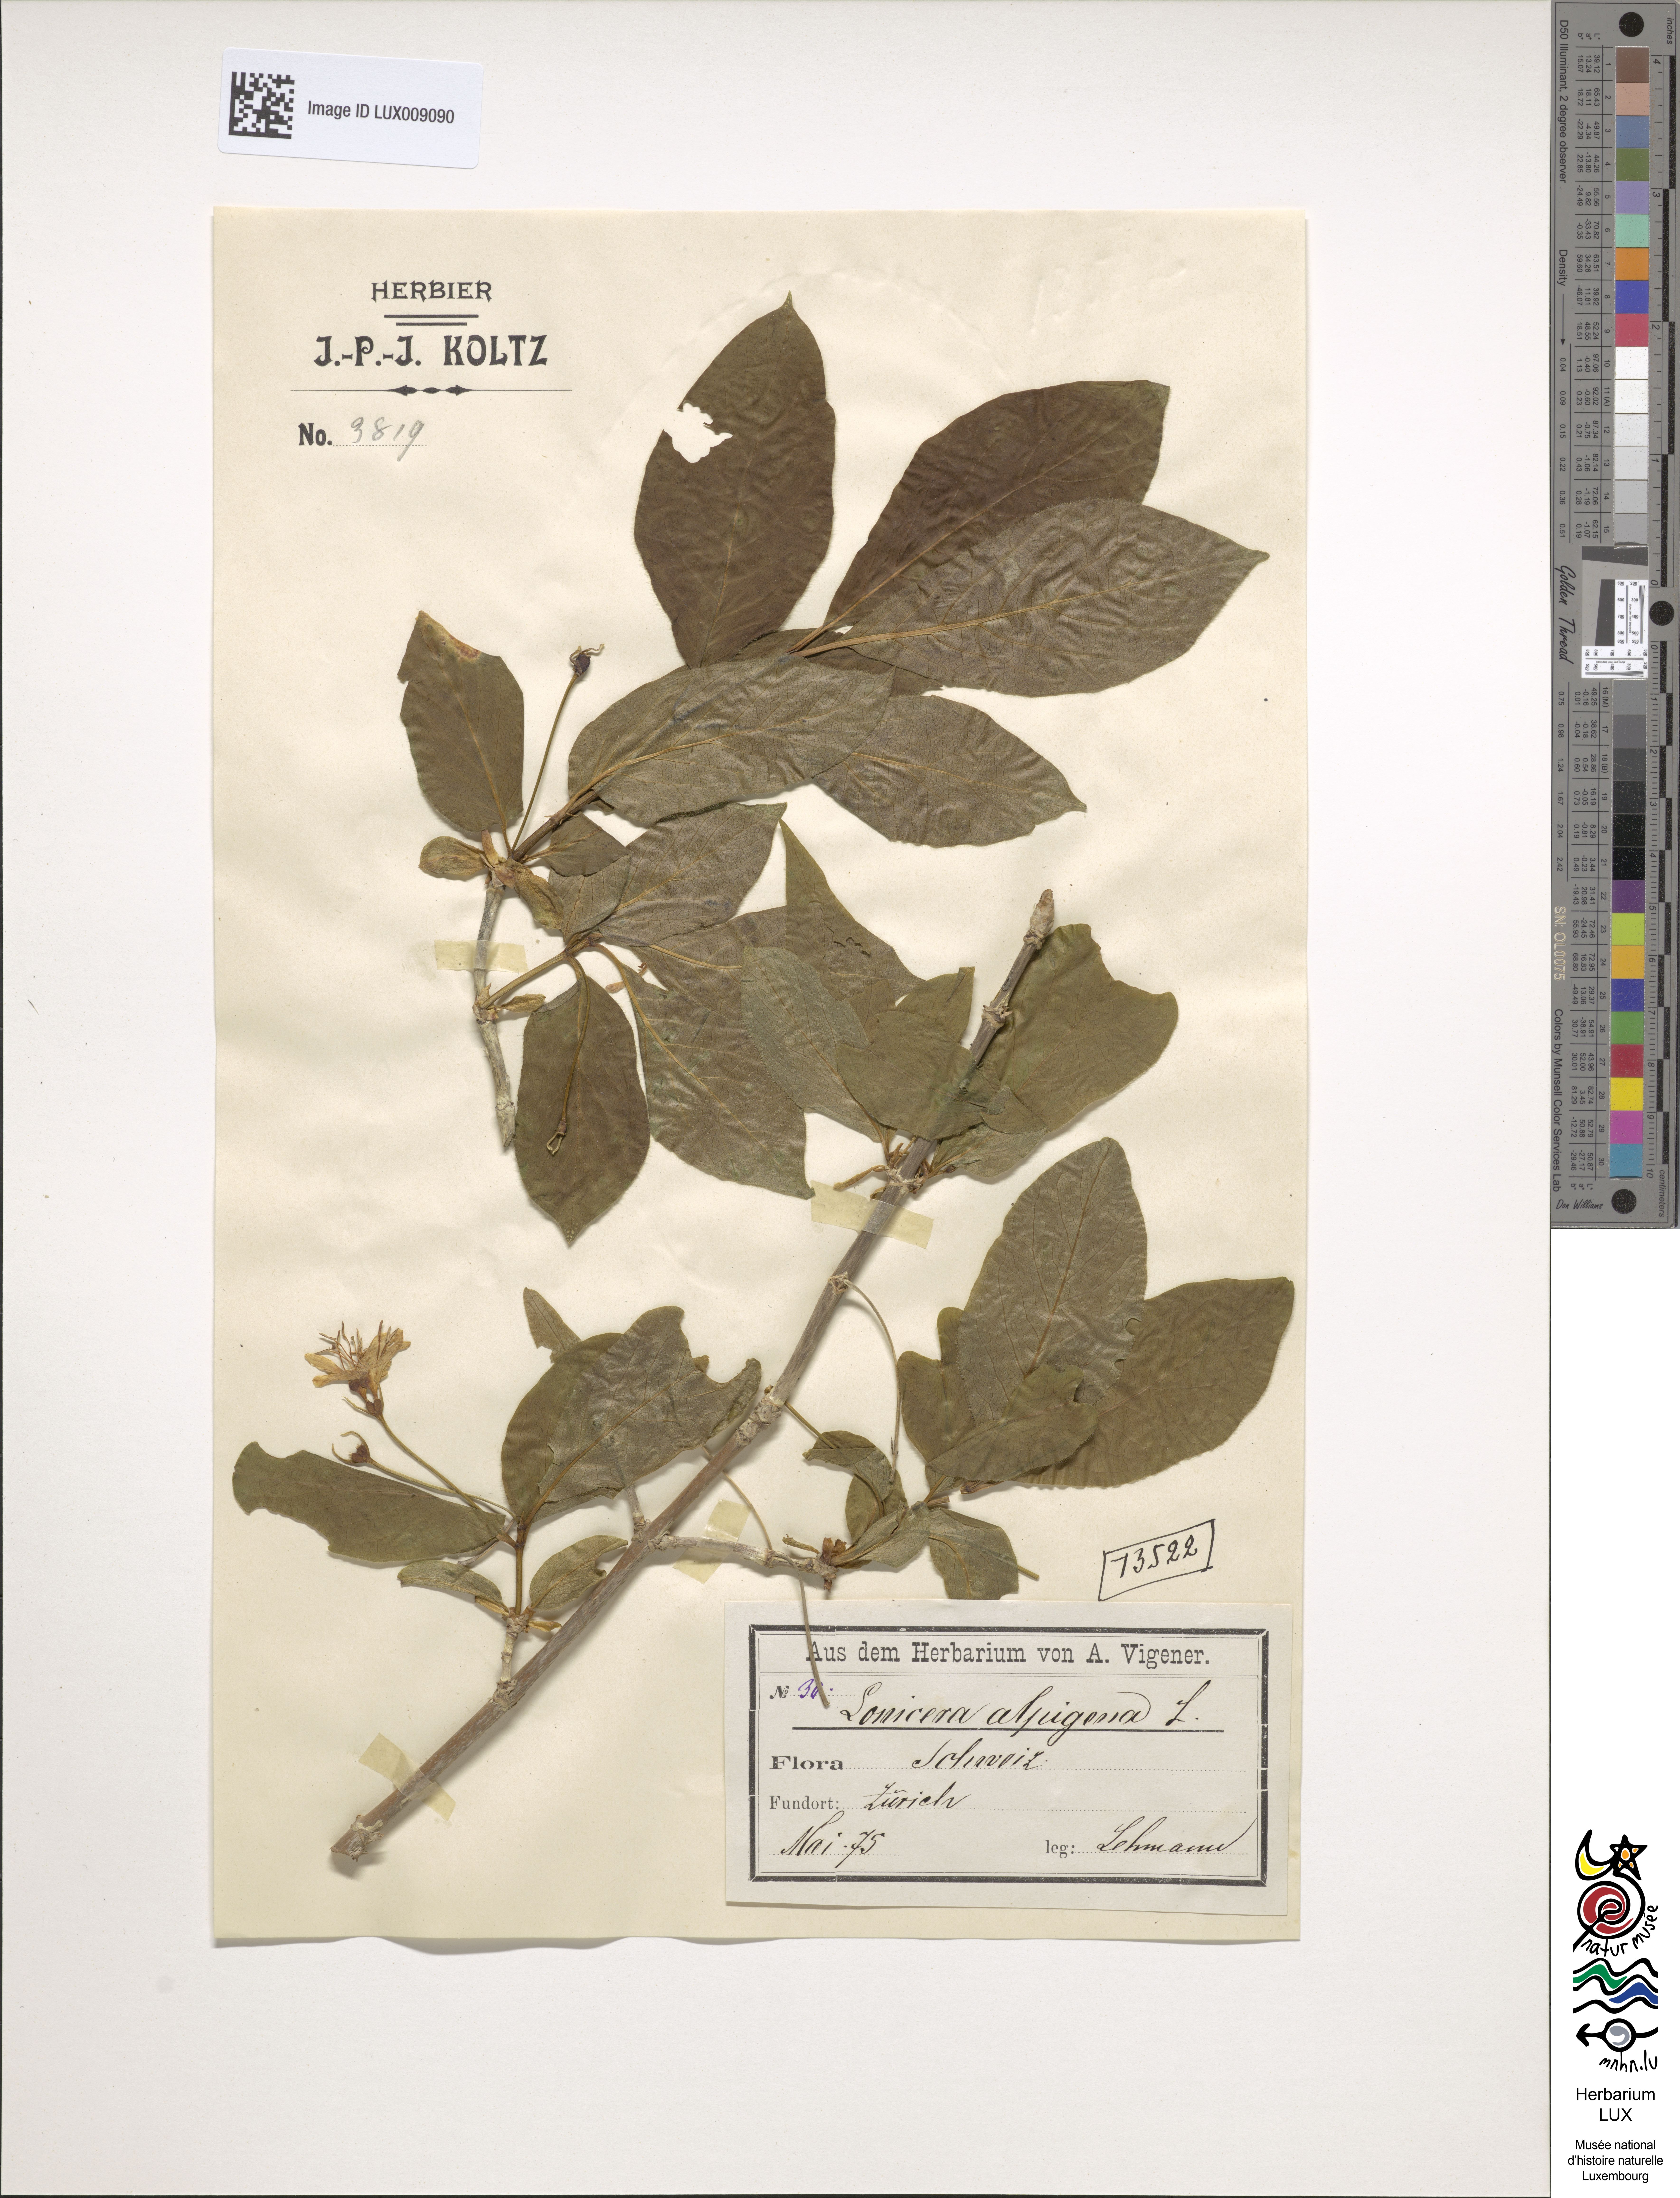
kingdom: Plantae
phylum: Tracheophyta
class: Magnoliopsida
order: Dipsacales
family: Caprifoliaceae
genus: Lonicera
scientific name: Lonicera alpigena
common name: Alpine honeysuckle
